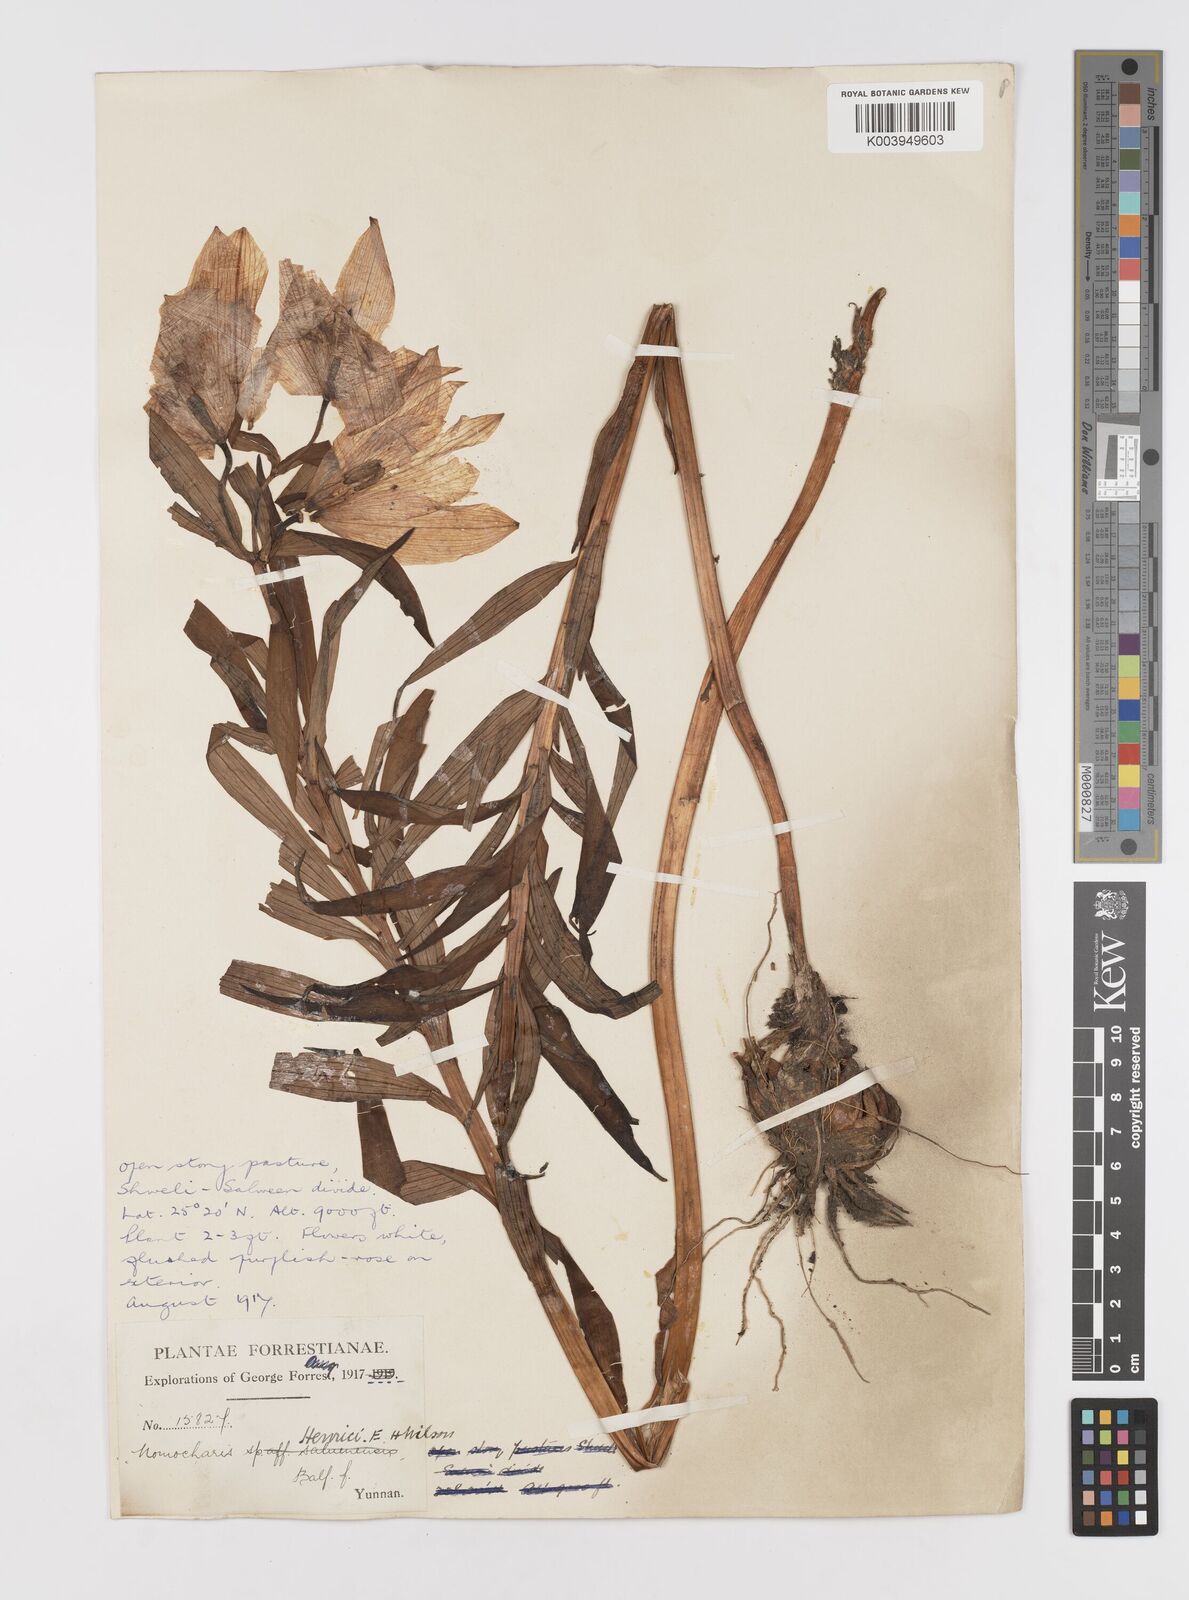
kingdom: Plantae
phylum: Tracheophyta
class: Liliopsida
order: Liliales
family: Liliaceae
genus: Lilium
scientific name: Lilium henrici
